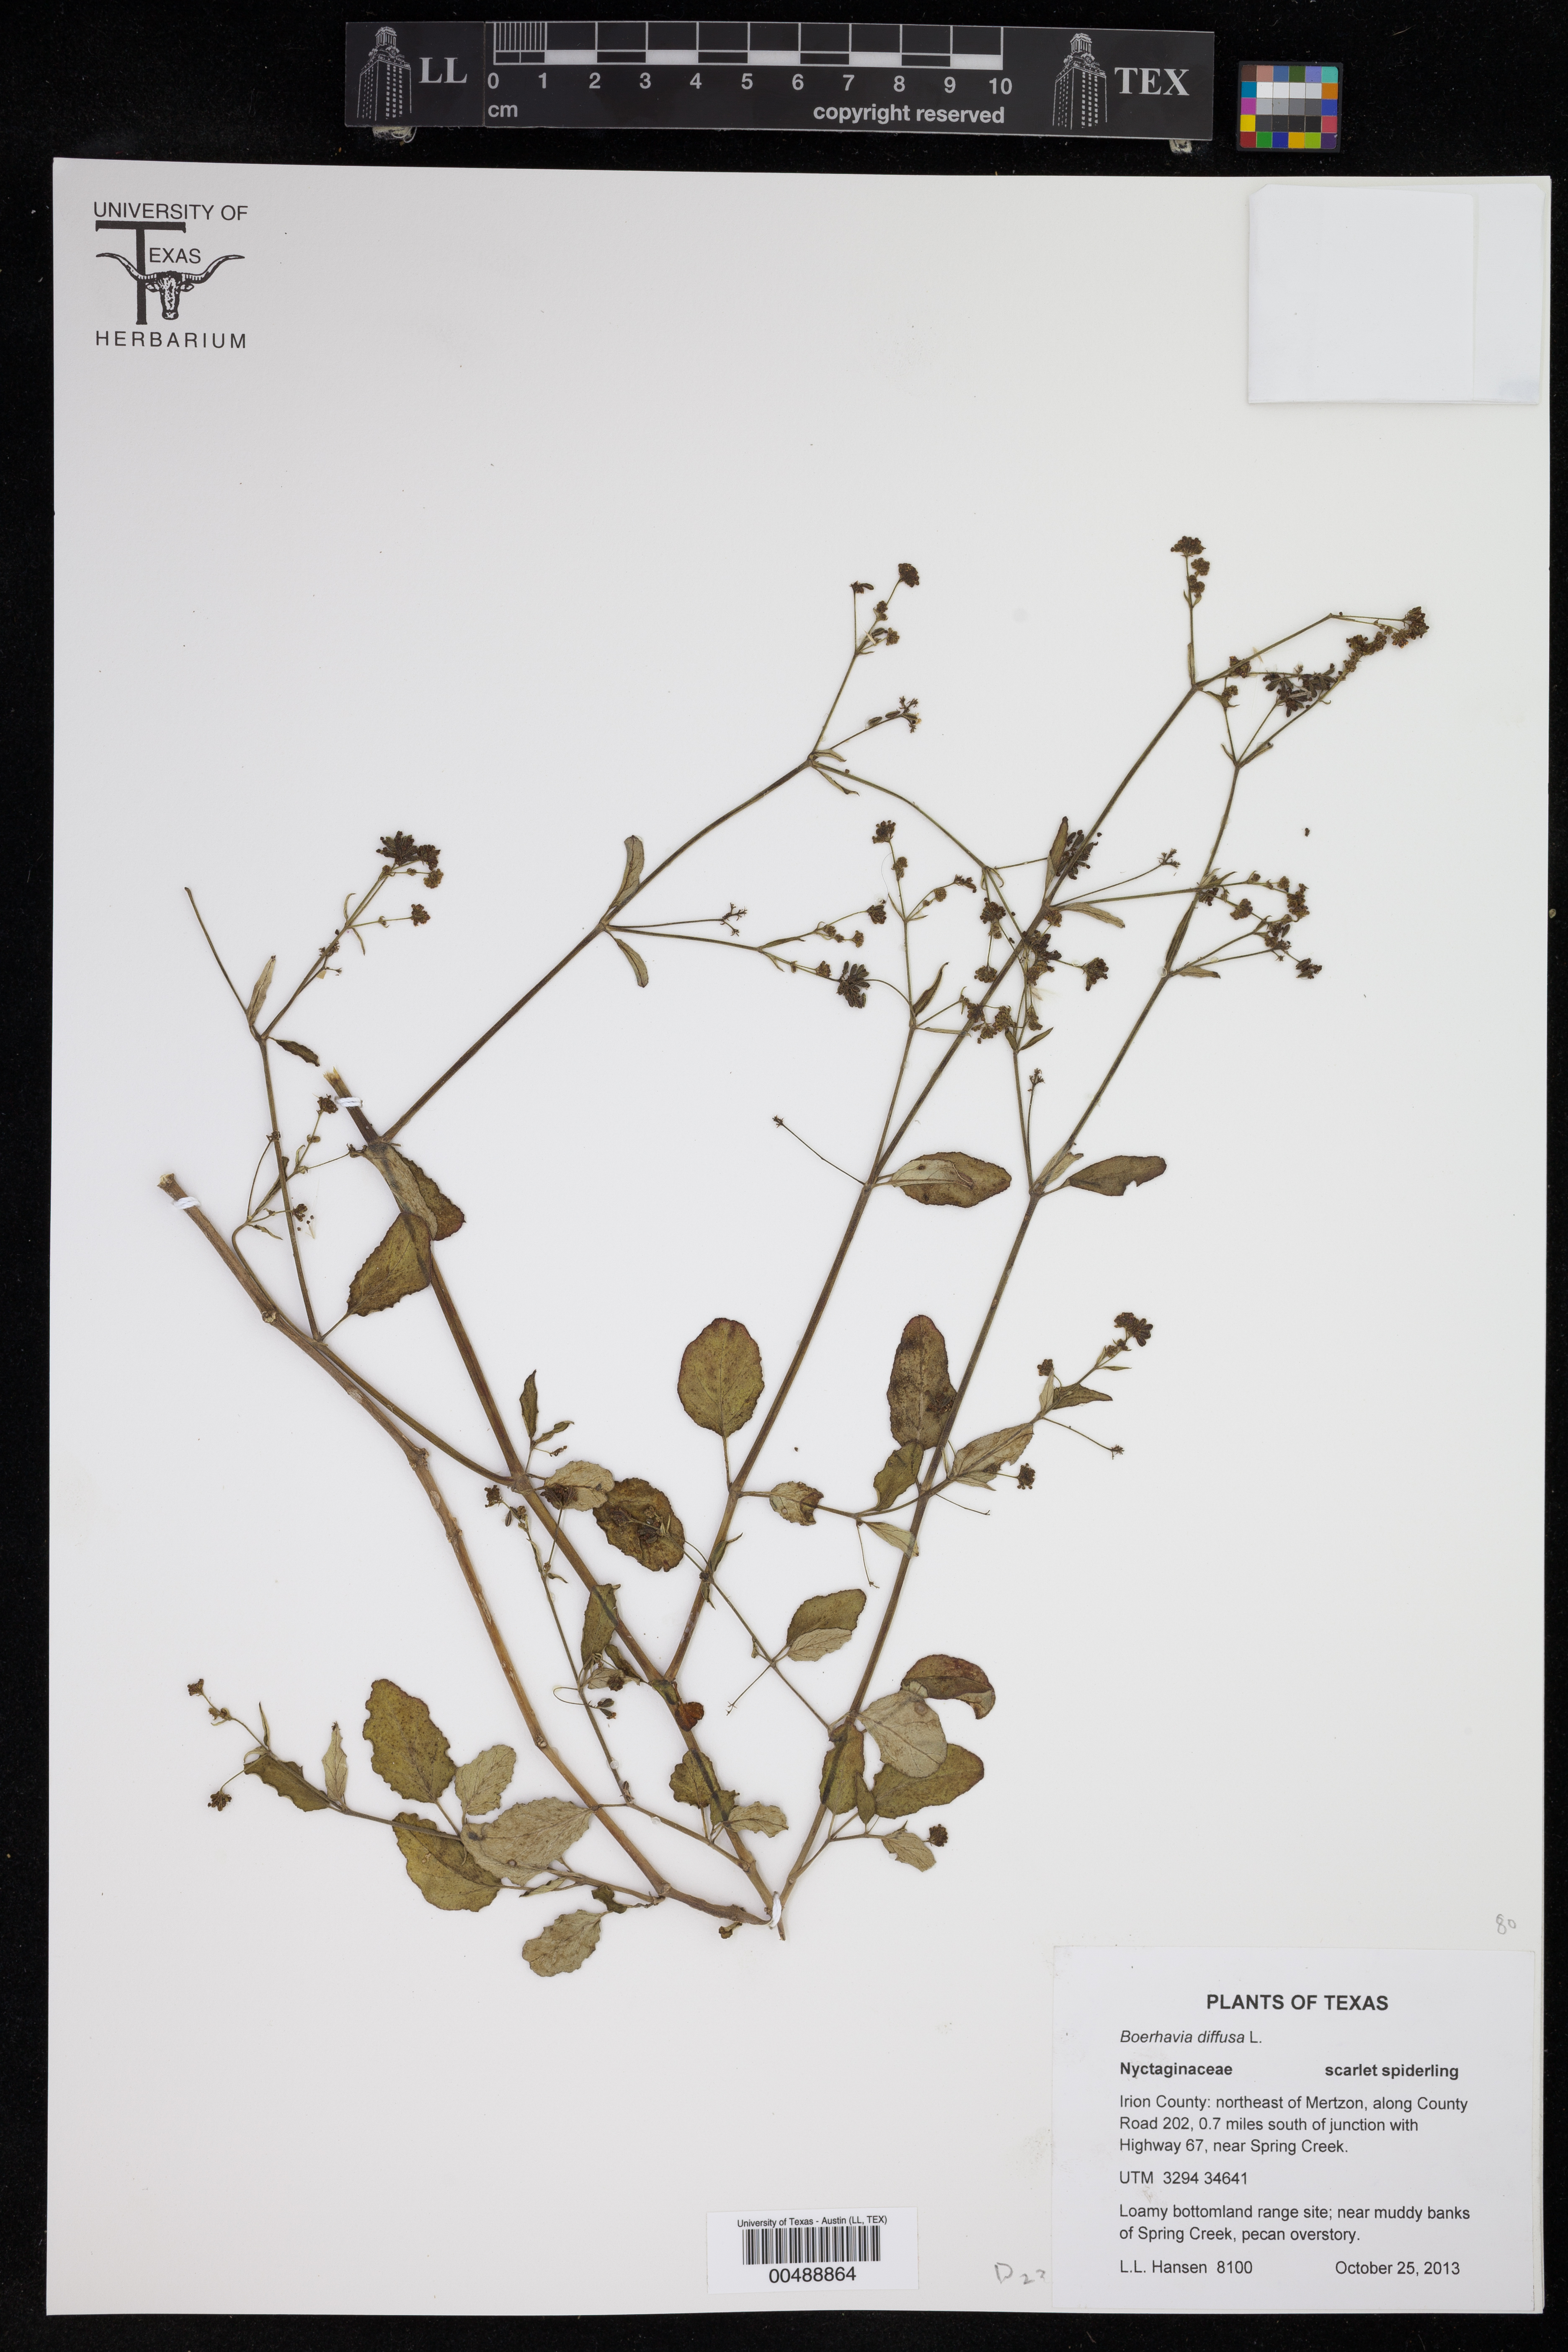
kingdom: Plantae
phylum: Tracheophyta
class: Magnoliopsida
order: Caryophyllales
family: Nyctaginaceae
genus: Boerhavia
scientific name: Boerhavia diffusa
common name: Red spiderling
